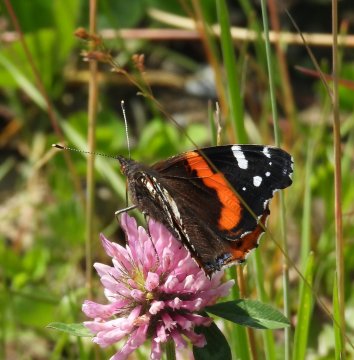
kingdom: Animalia
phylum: Arthropoda
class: Insecta
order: Lepidoptera
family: Nymphalidae
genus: Vanessa
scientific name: Vanessa atalanta
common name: Red Admiral
